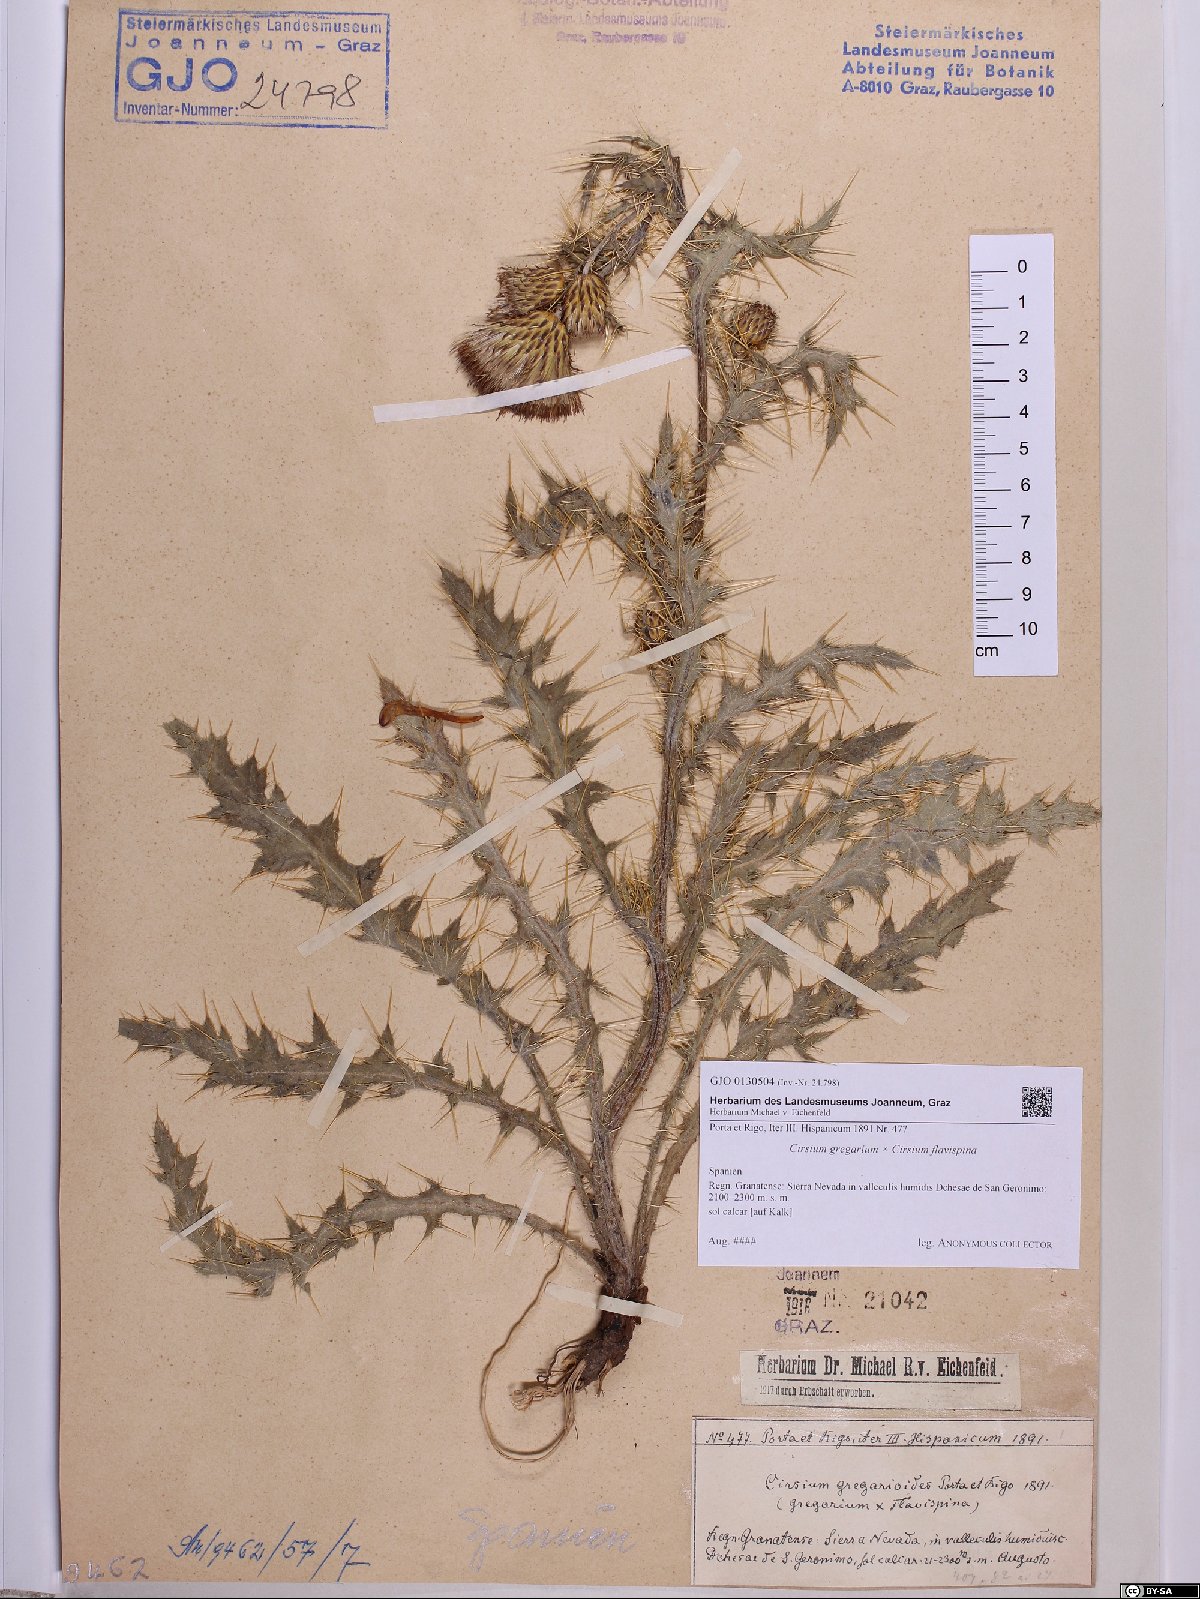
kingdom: Plantae
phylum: Tracheophyta
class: Magnoliopsida
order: Asterales
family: Asteraceae
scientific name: Asteraceae
